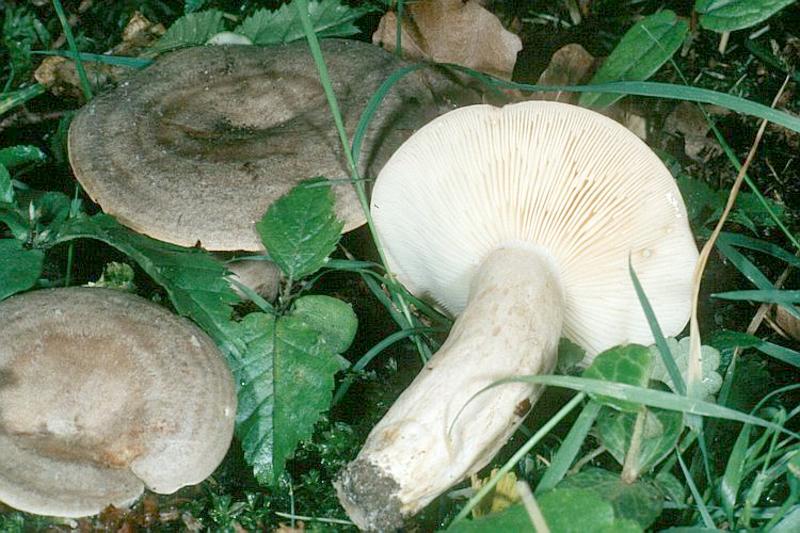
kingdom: Fungi
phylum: Basidiomycota
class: Agaricomycetes
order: Russulales
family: Russulaceae
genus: Lactarius
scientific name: Lactarius circellatus
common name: Circled milkcap
